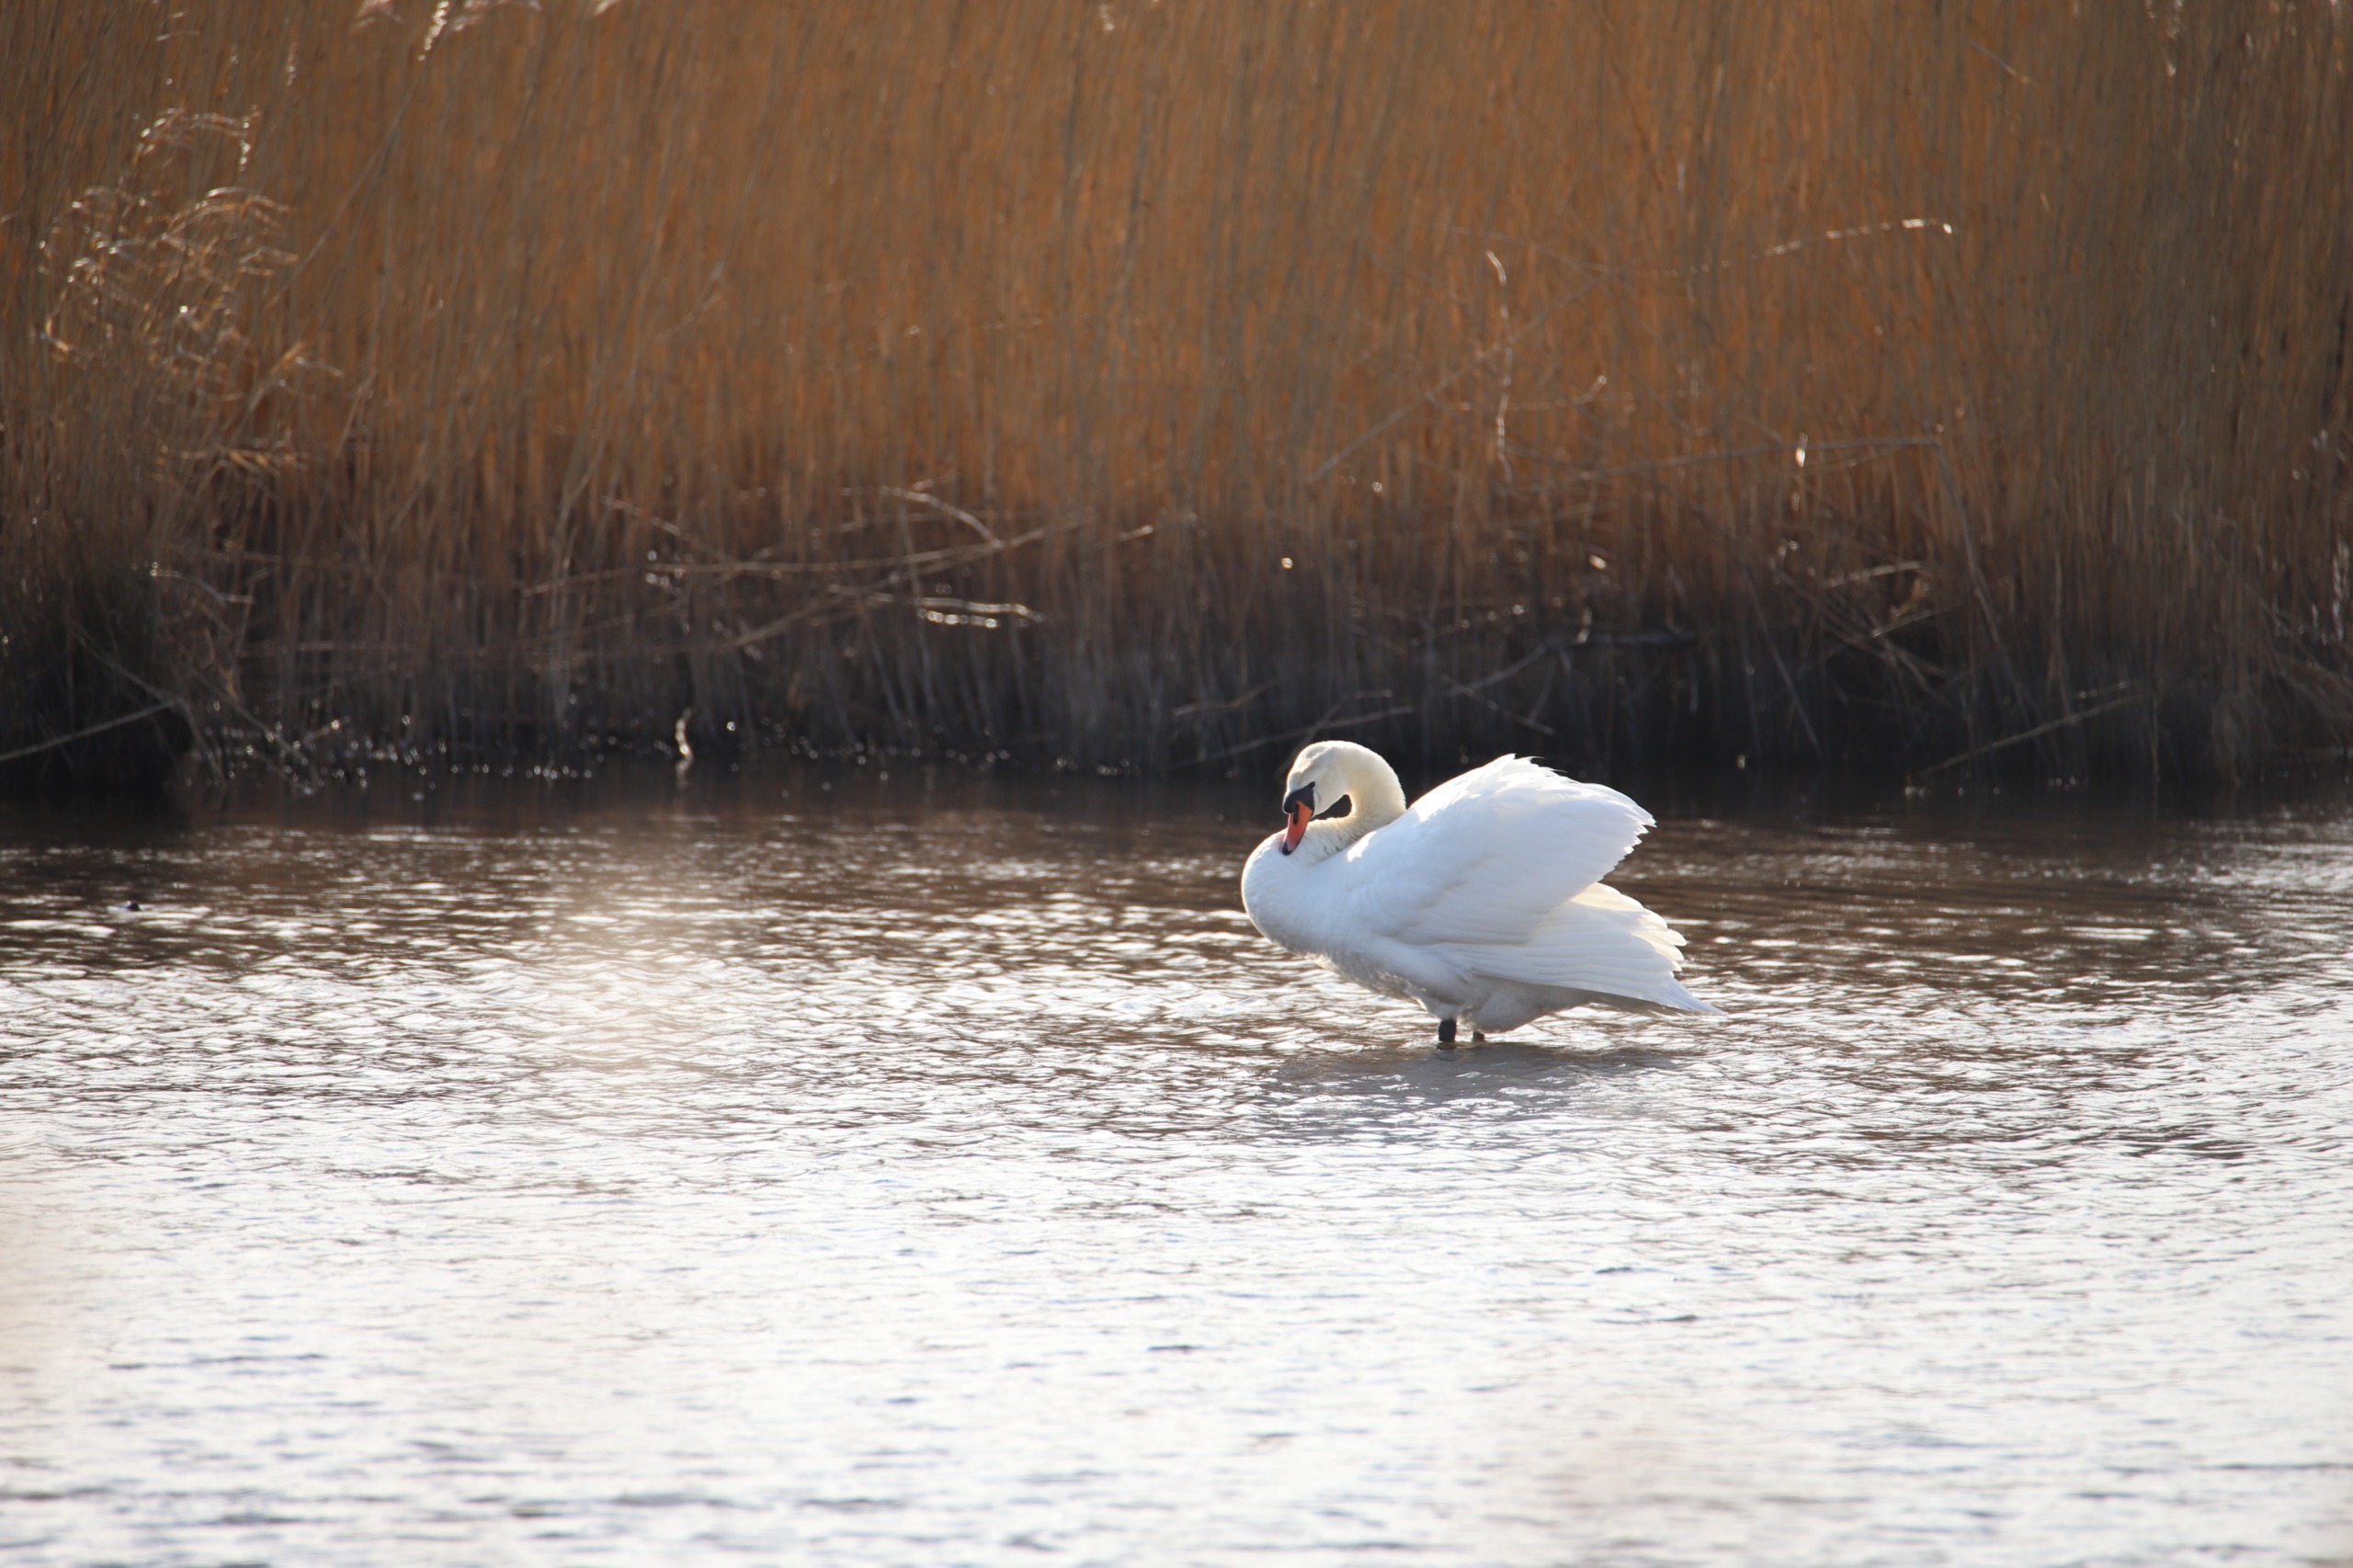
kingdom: Animalia
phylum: Chordata
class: Aves
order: Anseriformes
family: Anatidae
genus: Cygnus
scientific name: Cygnus olor
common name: Knopsvane
